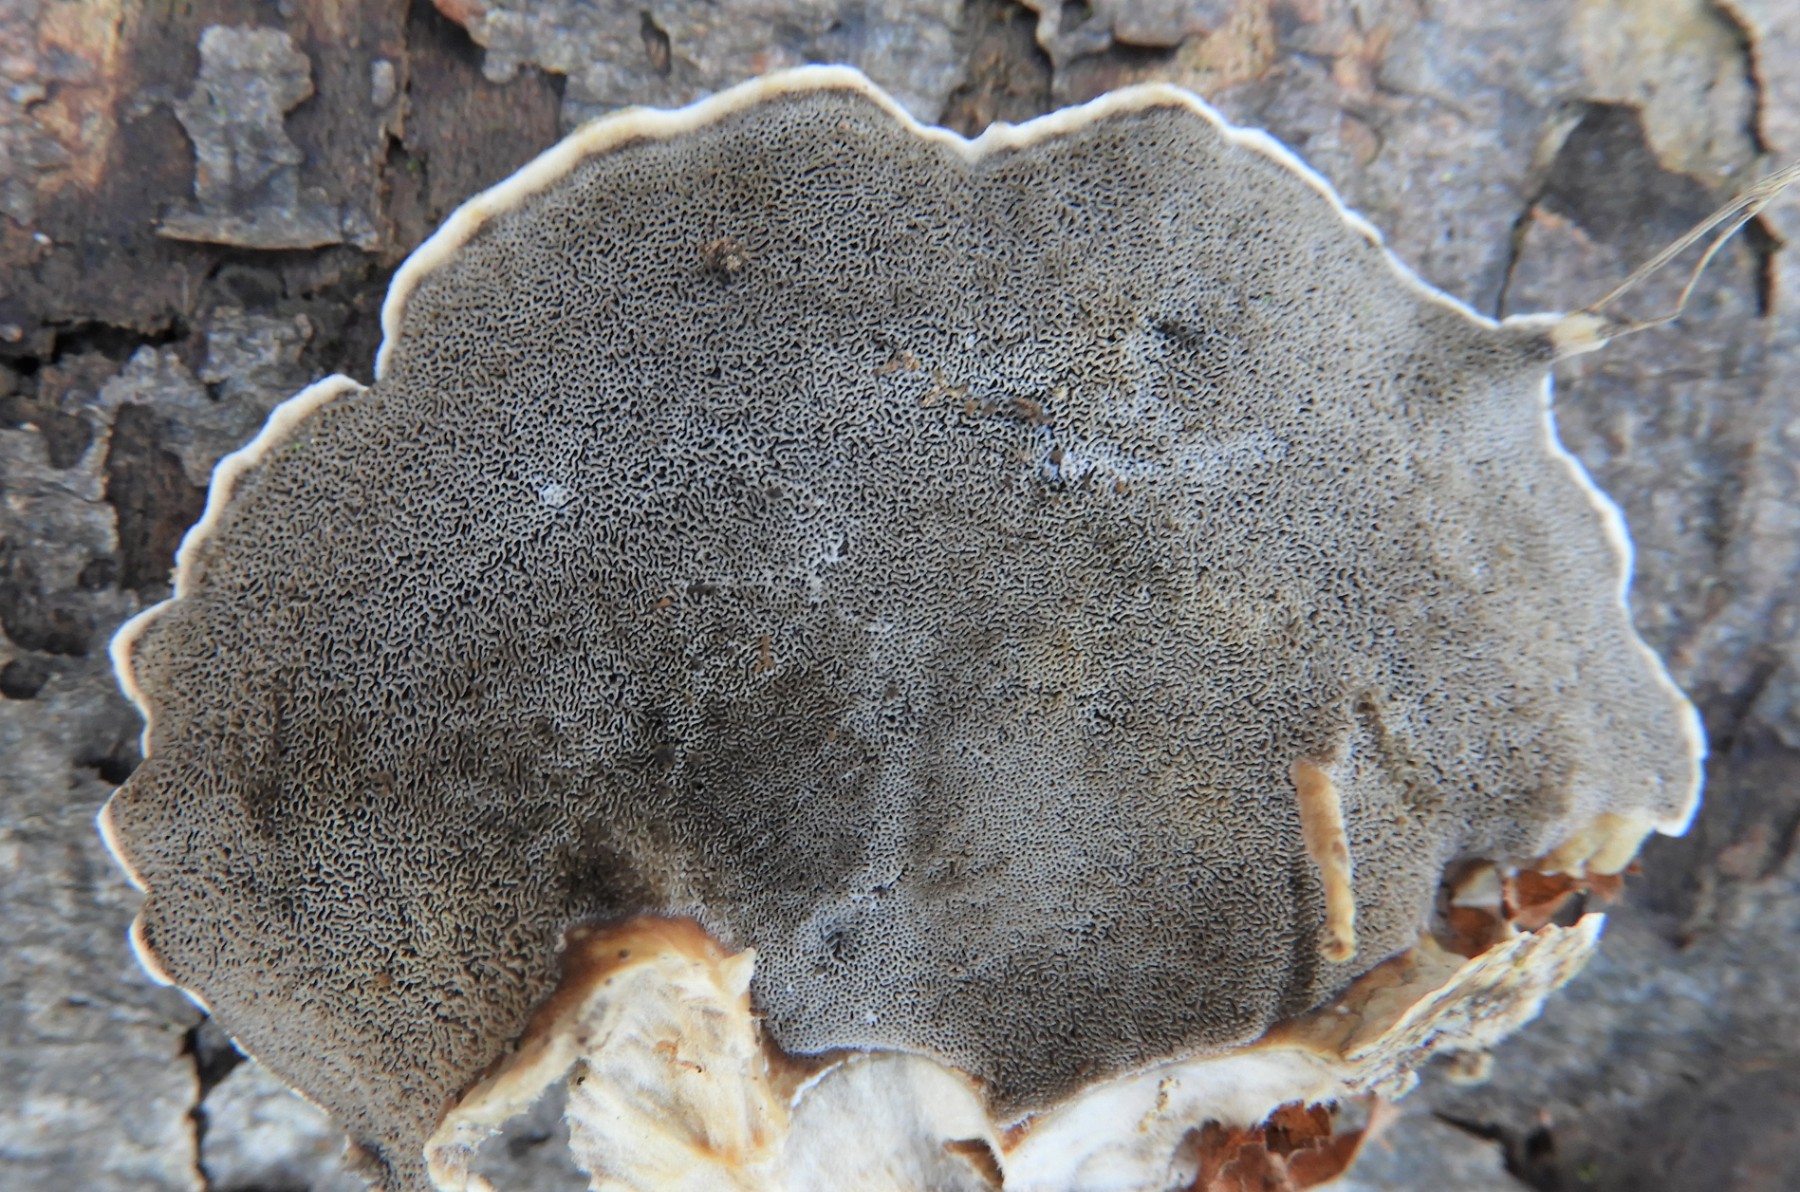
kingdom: Fungi
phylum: Basidiomycota
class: Agaricomycetes
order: Polyporales
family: Phanerochaetaceae
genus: Bjerkandera
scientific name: Bjerkandera adusta
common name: sveden sodporesvamp
